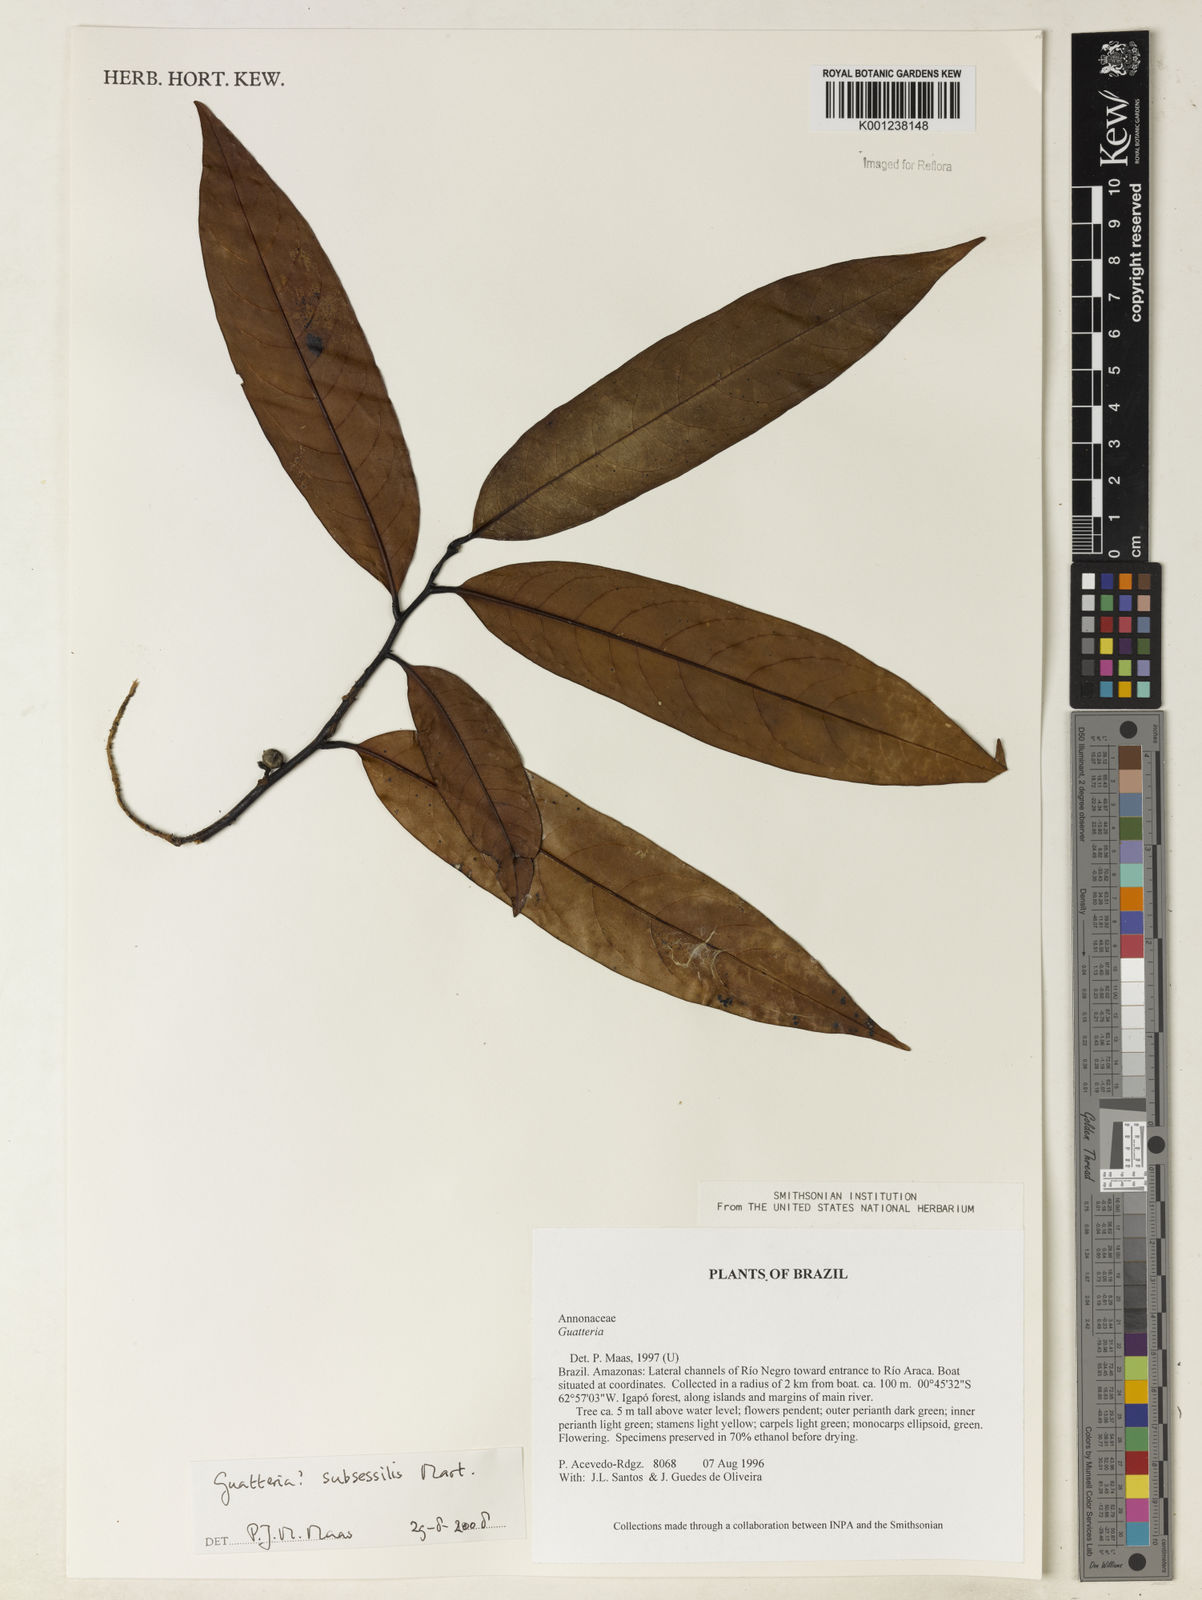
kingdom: Plantae
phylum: Tracheophyta
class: Magnoliopsida
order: Magnoliales
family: Annonaceae
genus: Guatteria
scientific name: Guatteria subsessilis
